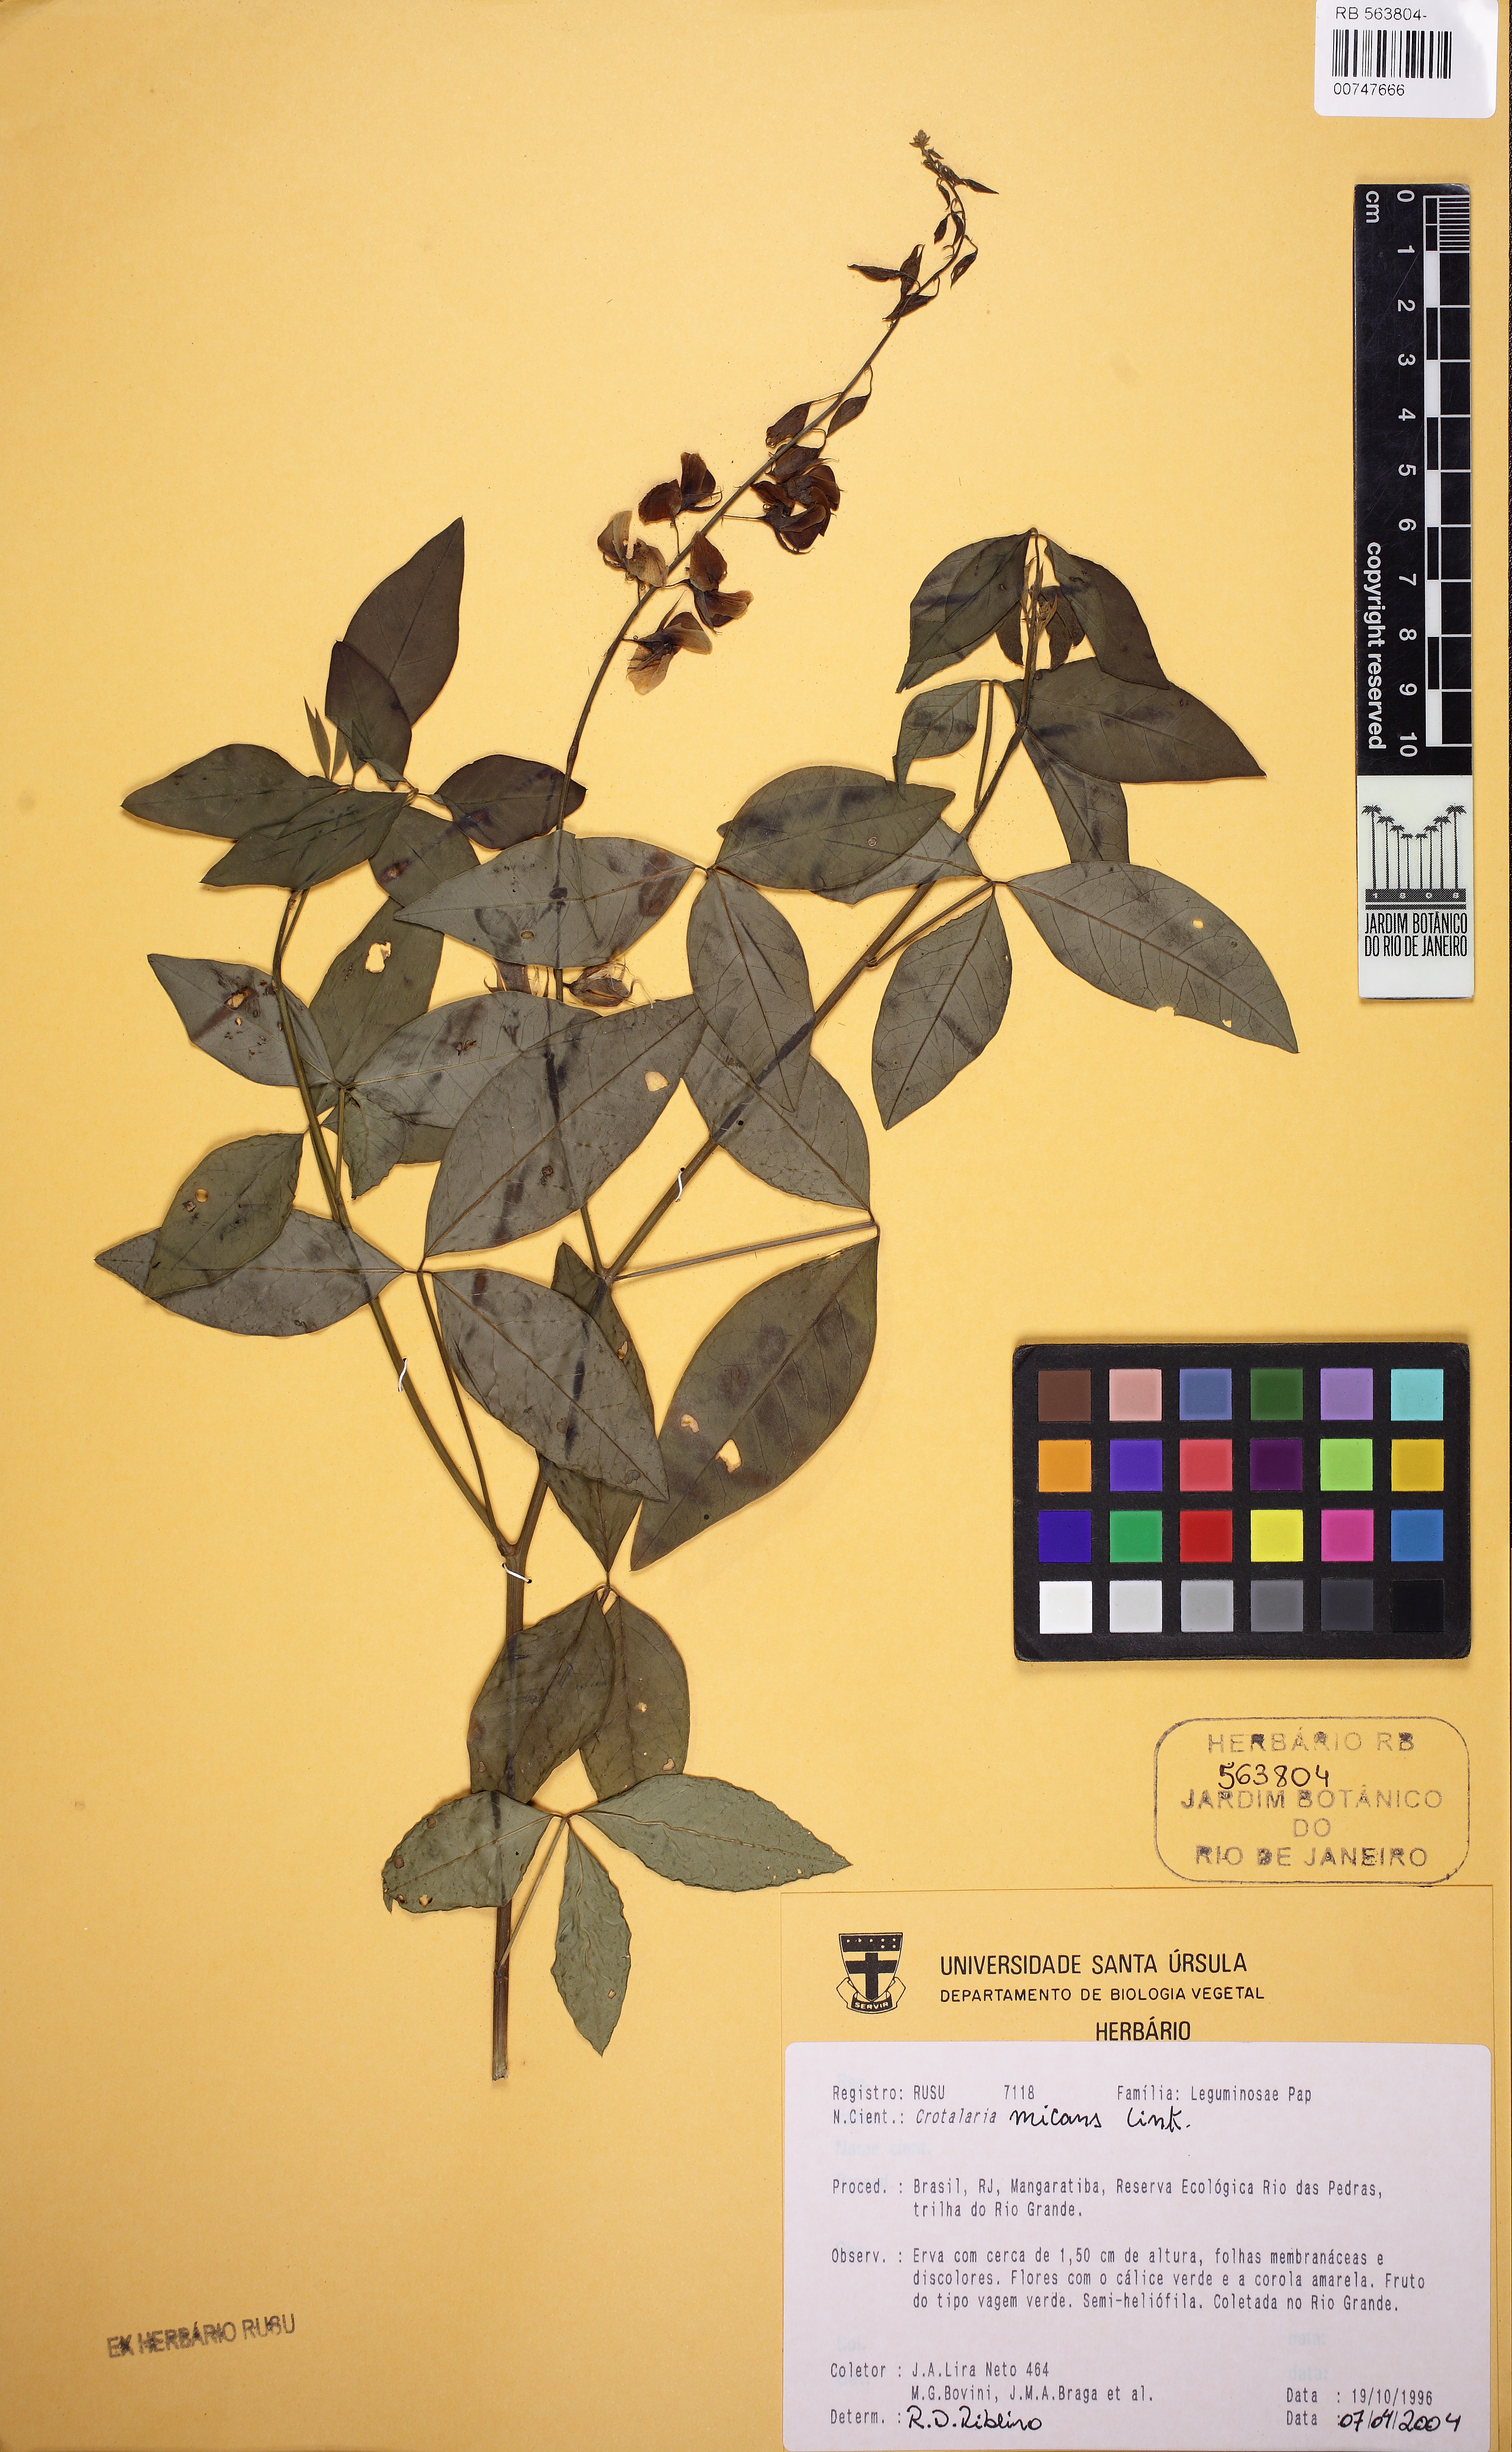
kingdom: Plantae
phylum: Tracheophyta
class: Magnoliopsida
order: Fabales
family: Fabaceae
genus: Crotalaria
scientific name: Crotalaria micans
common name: Caracas rattlebox
